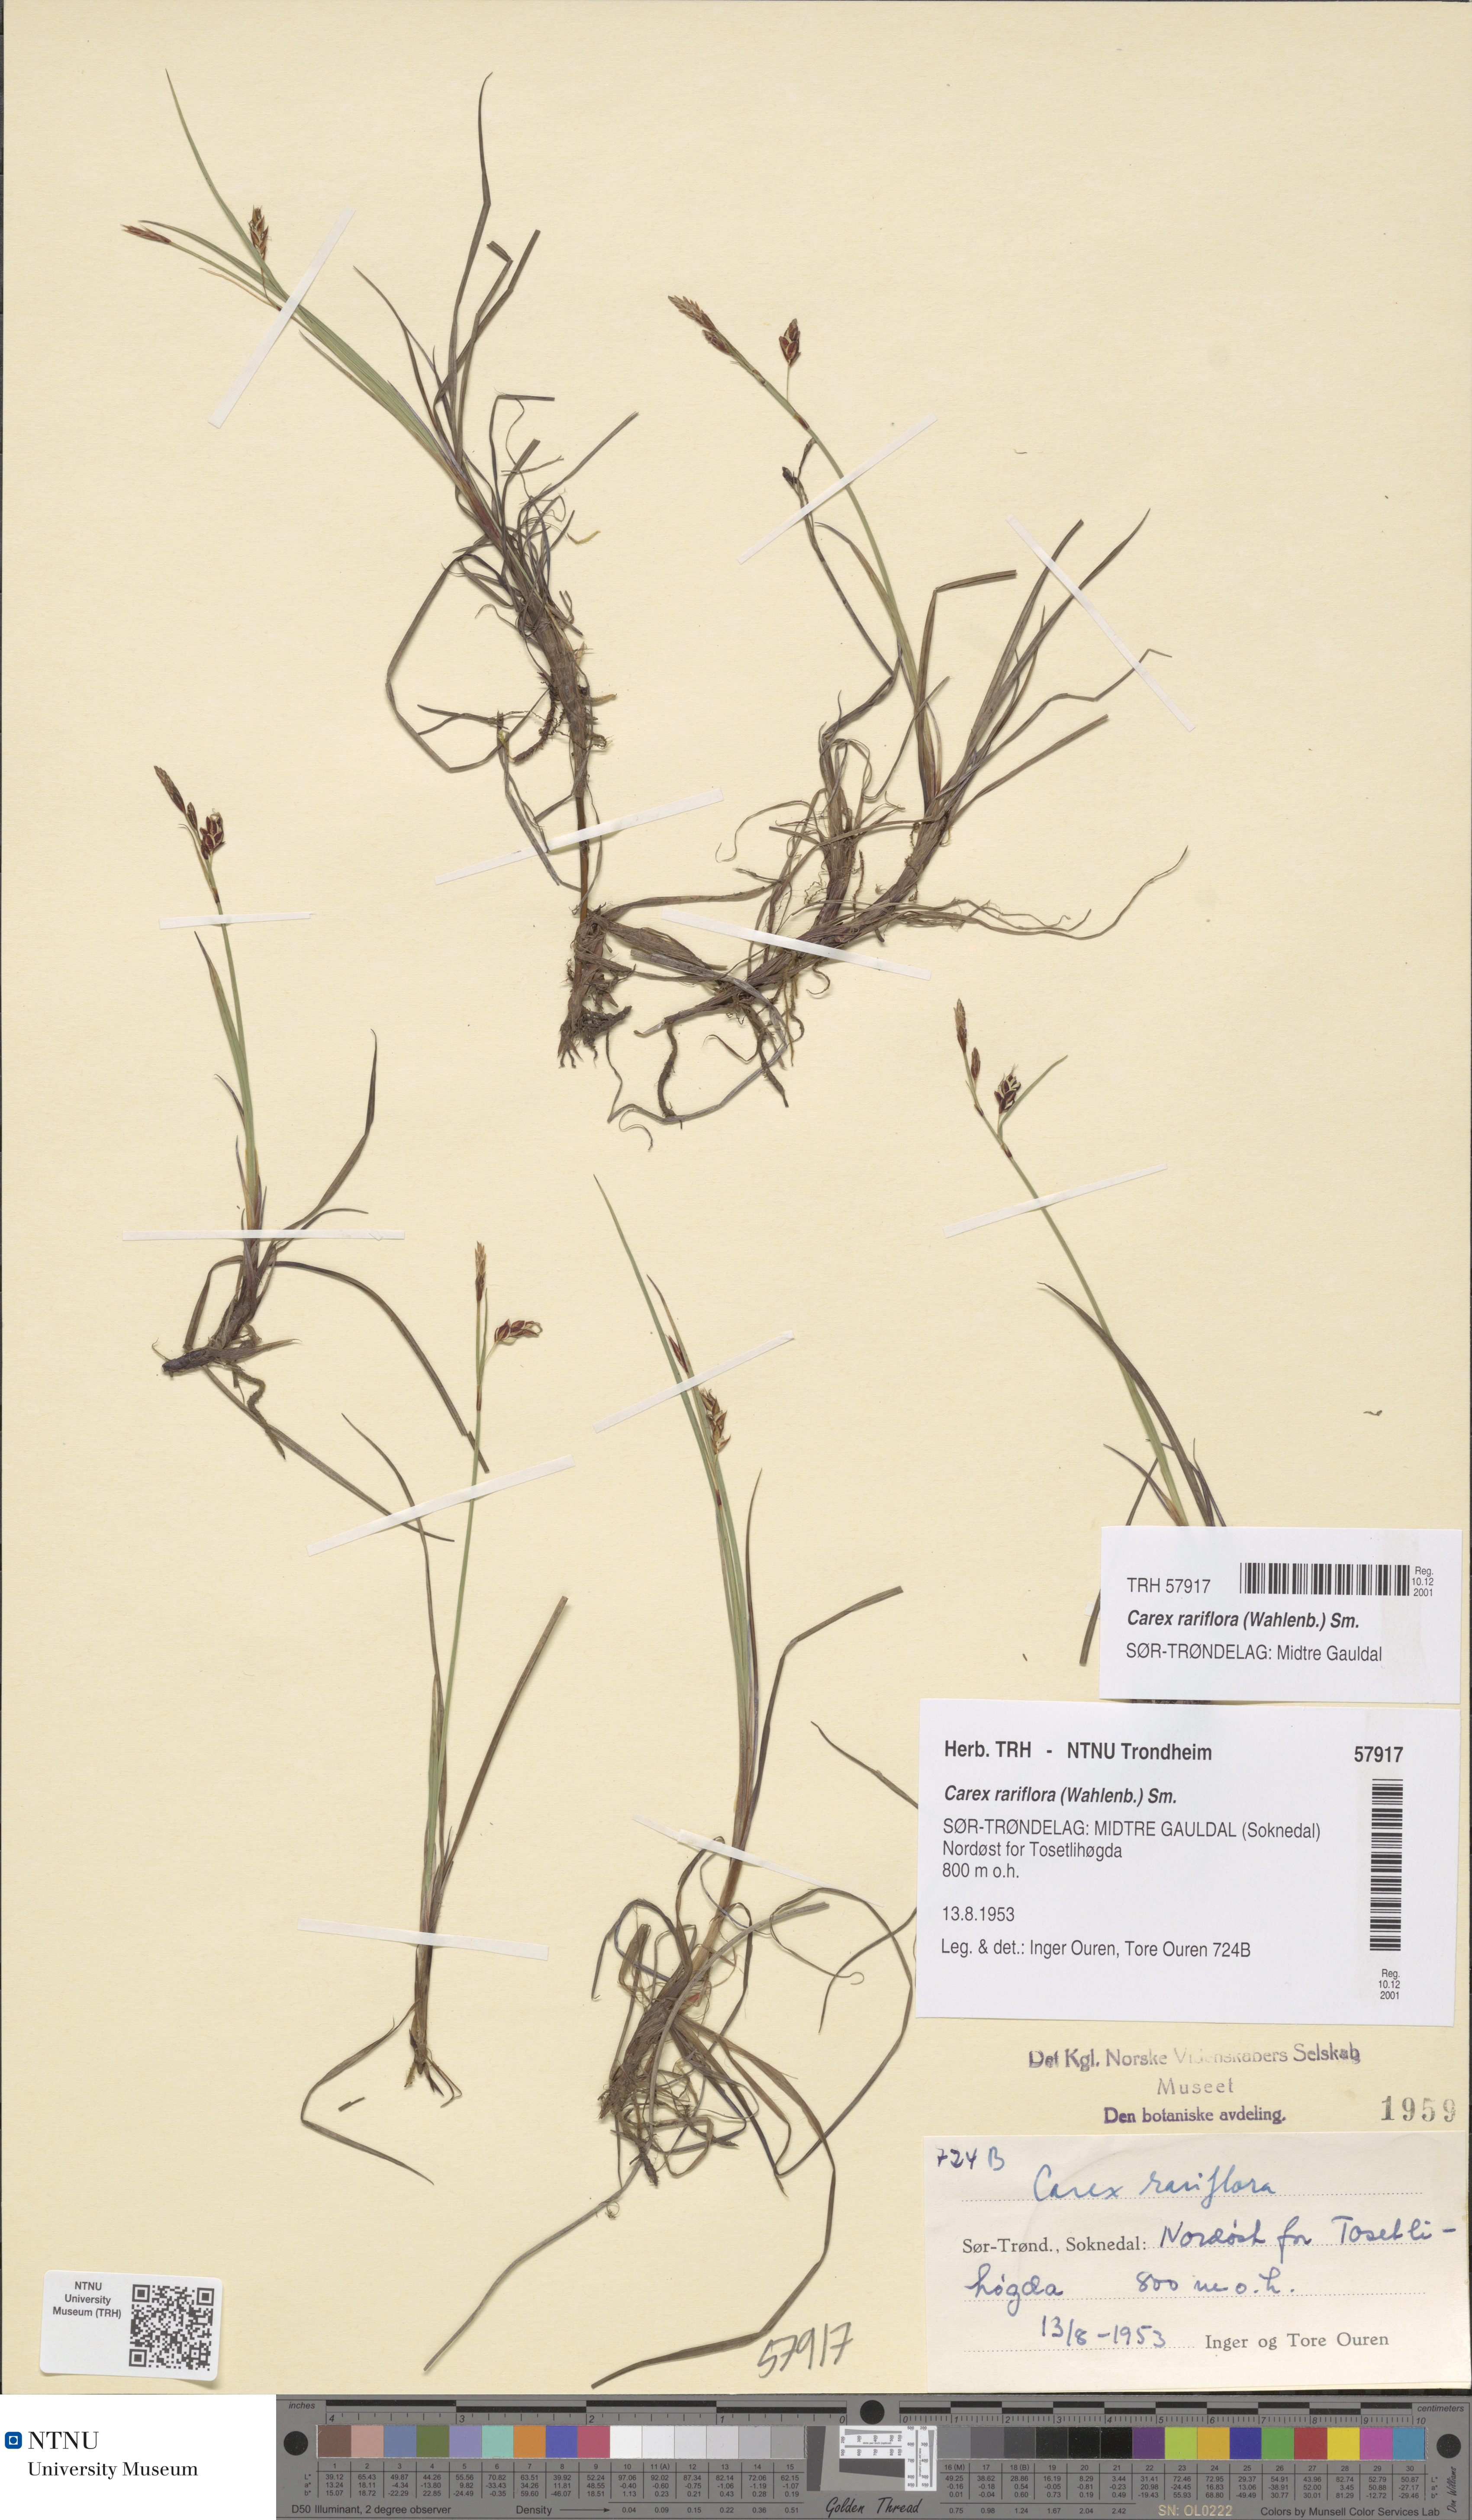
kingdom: Plantae
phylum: Tracheophyta
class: Liliopsida
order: Poales
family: Cyperaceae
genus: Carex
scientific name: Carex rariflora
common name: Loose-flowered alpine sedge
